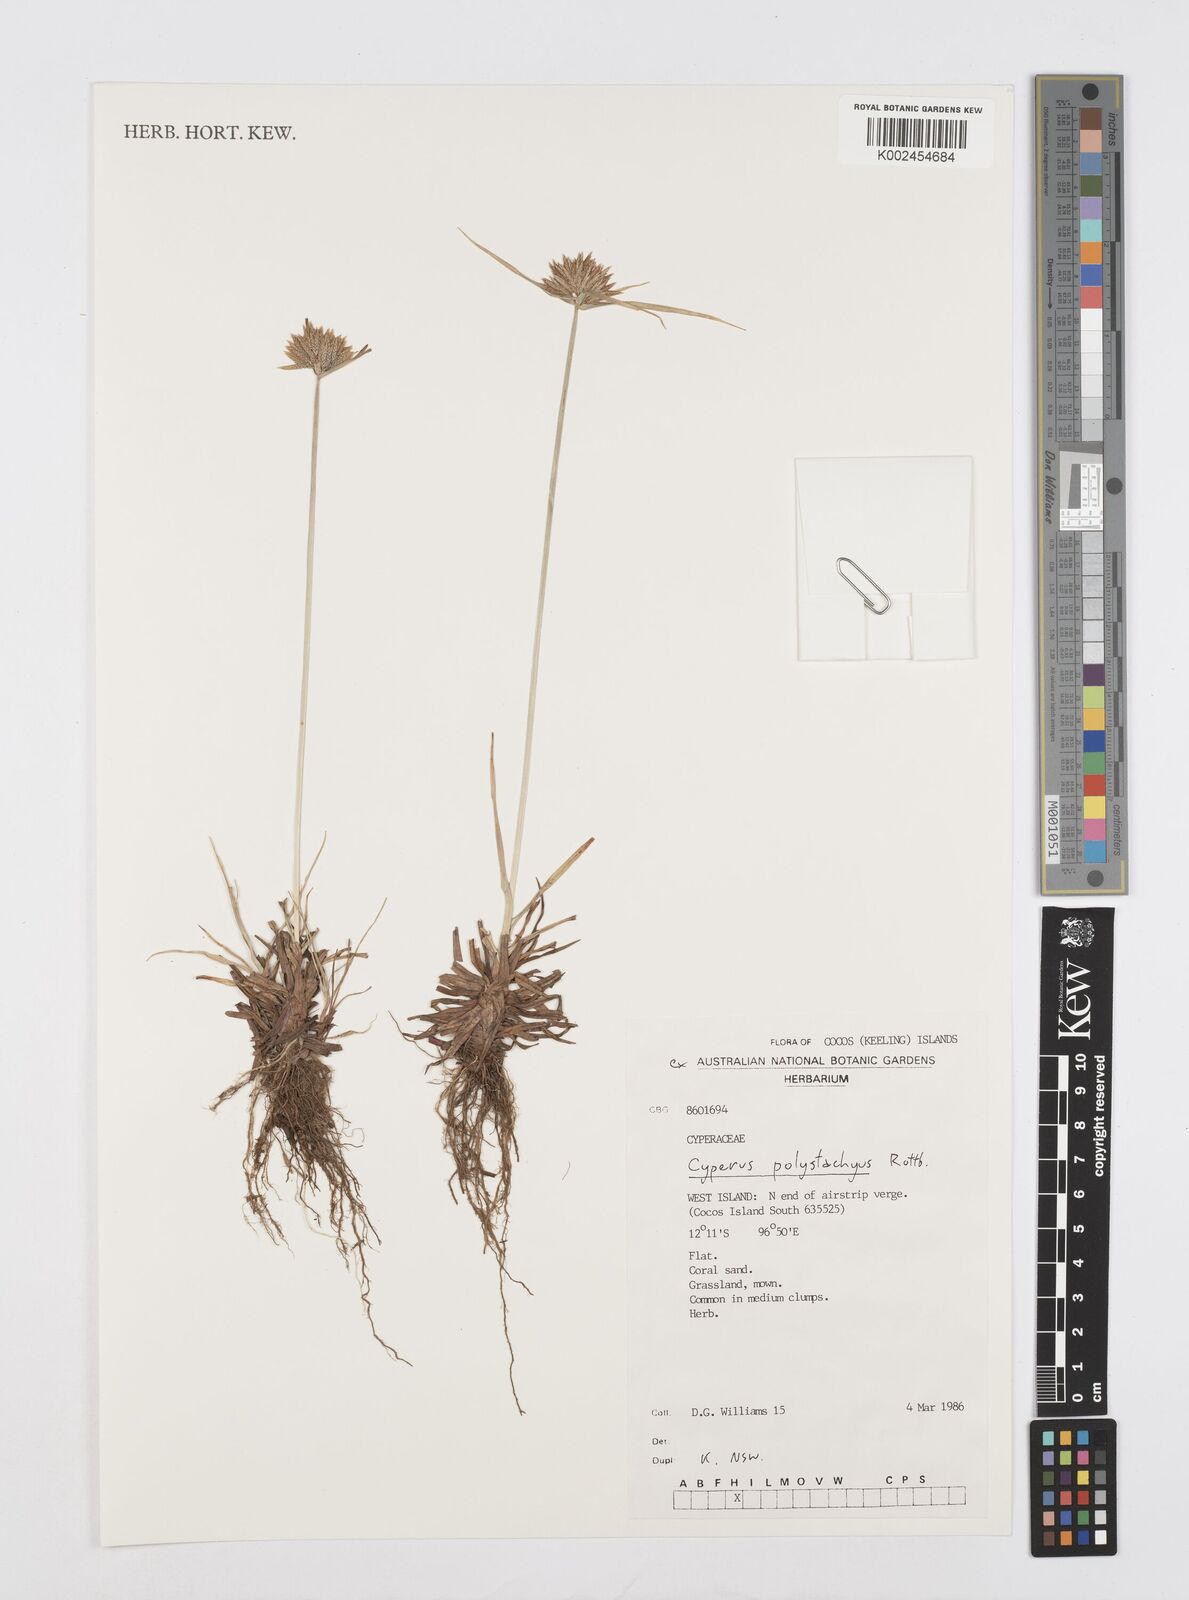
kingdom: Plantae
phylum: Tracheophyta
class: Liliopsida
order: Poales
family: Cyperaceae
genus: Cyperus
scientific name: Cyperus polystachyos
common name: Bunchy flat sedge
